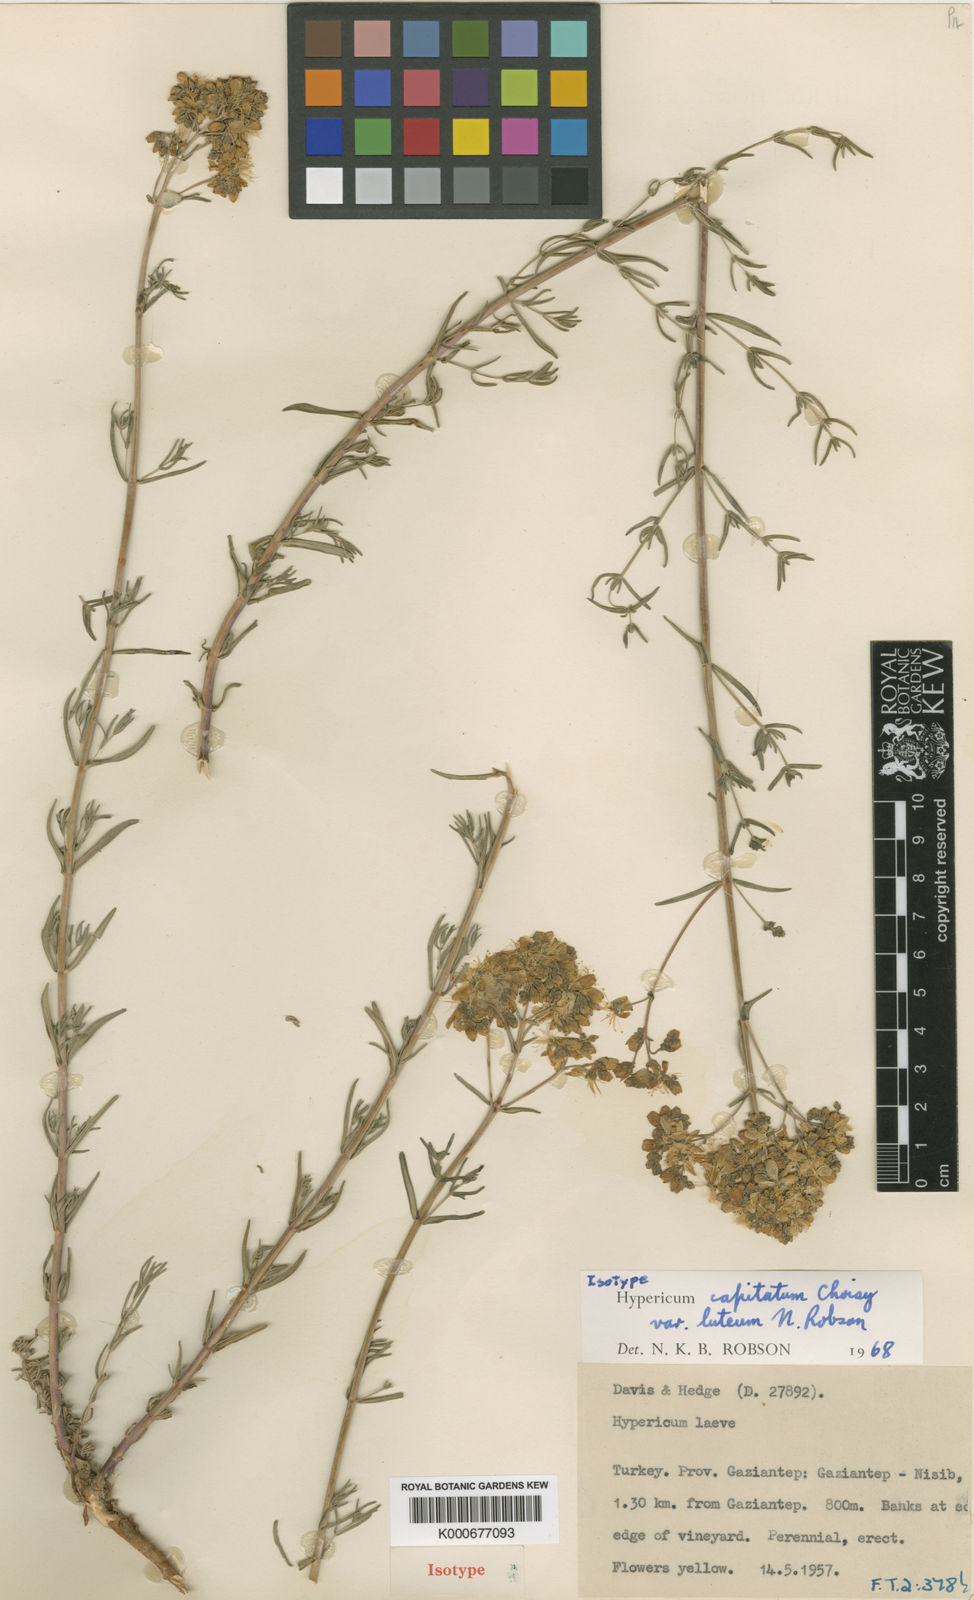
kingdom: Plantae
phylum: Tracheophyta
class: Magnoliopsida
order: Malpighiales
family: Hypericaceae
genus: Hypericum
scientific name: Hypericum capitatum
